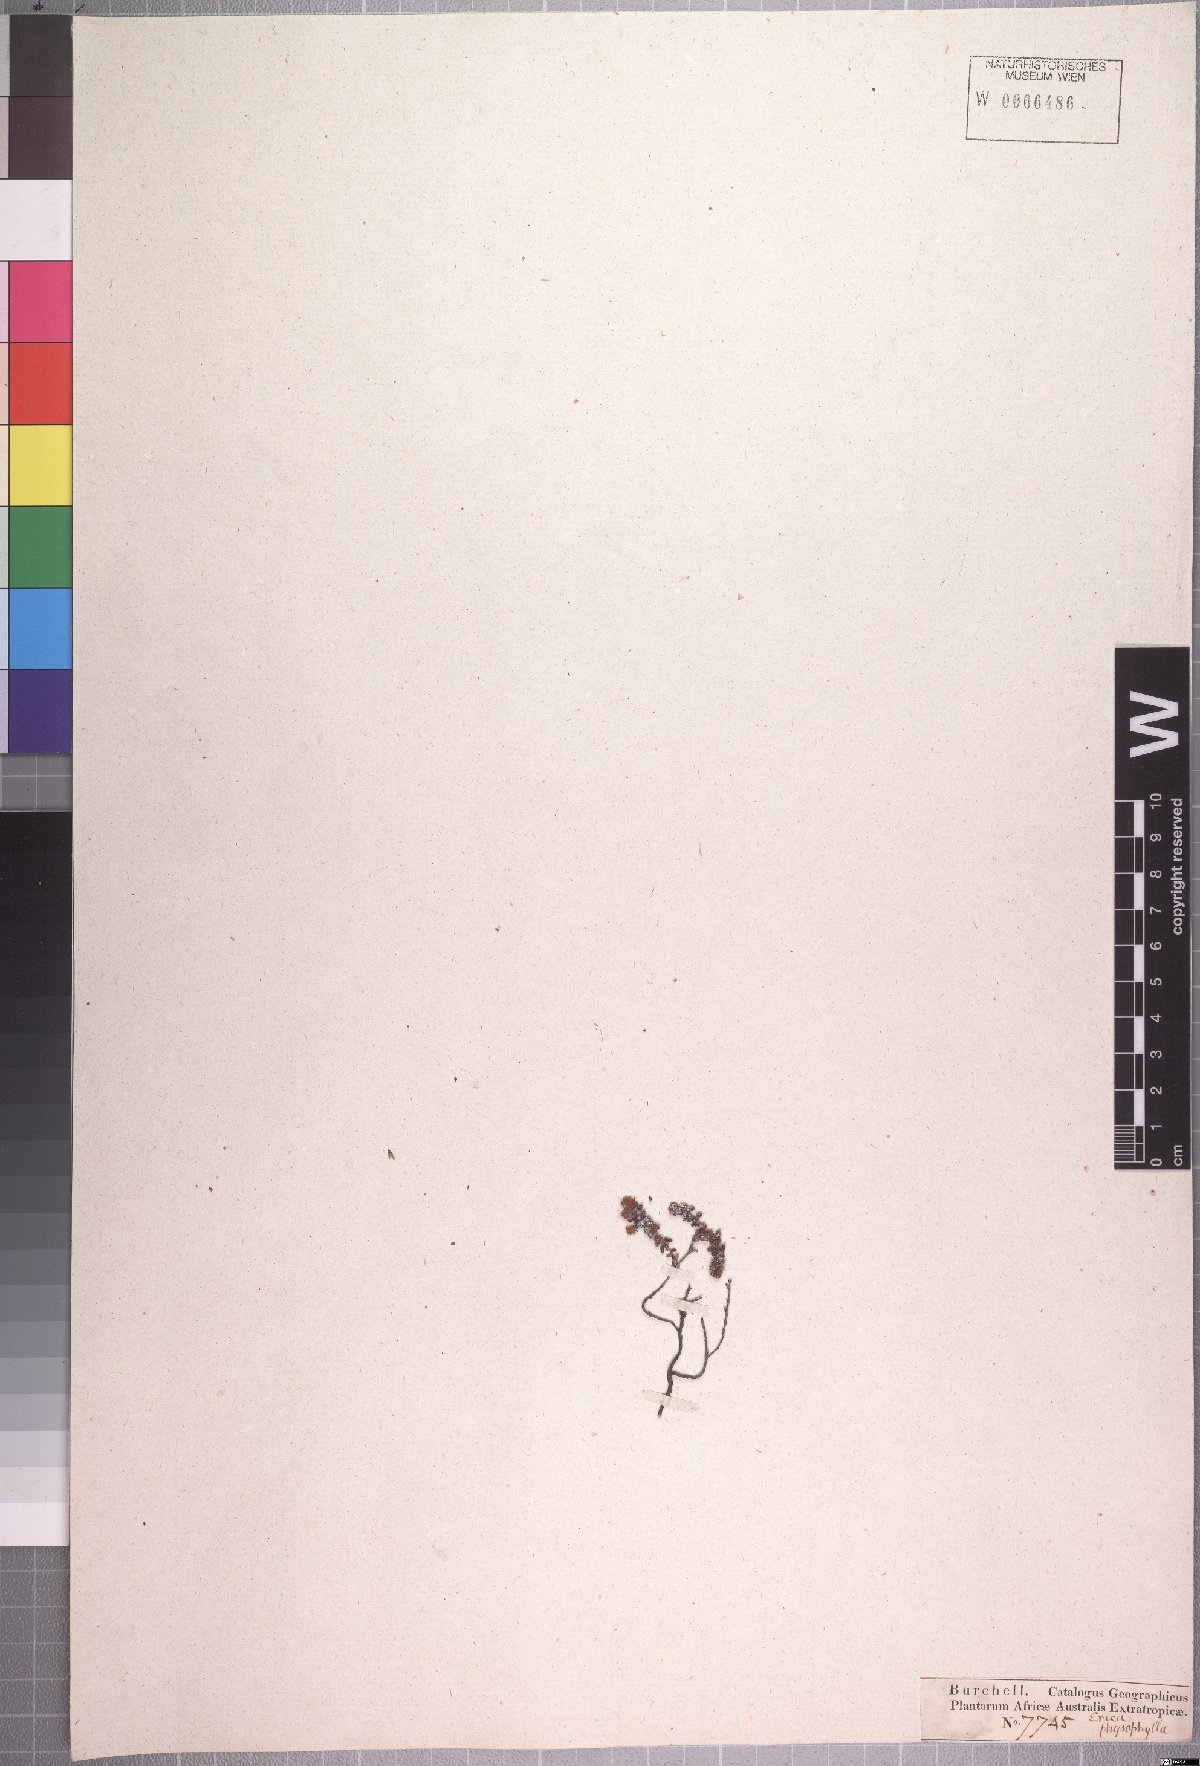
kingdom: Plantae
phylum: Tracheophyta
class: Magnoliopsida
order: Ericales
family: Ericaceae
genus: Erica
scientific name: Erica physophylla
